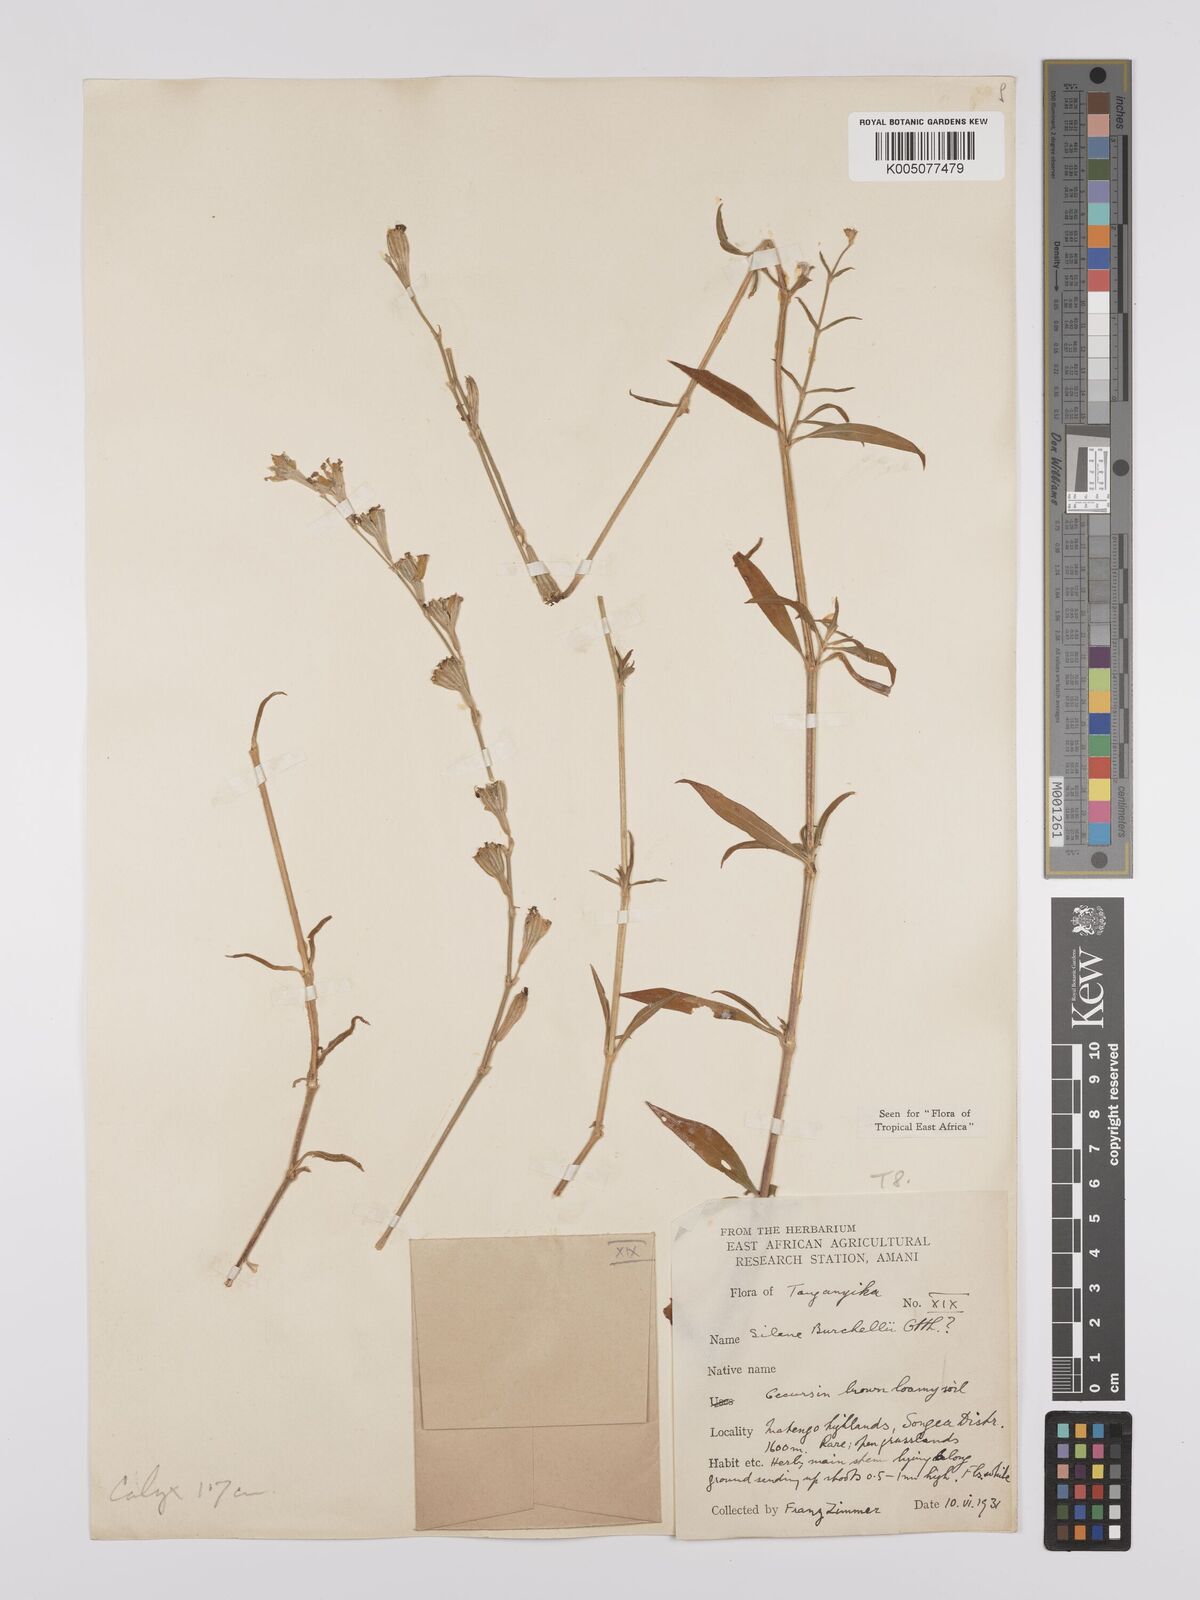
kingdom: Plantae
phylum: Tracheophyta
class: Magnoliopsida
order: Caryophyllales
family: Caryophyllaceae
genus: Silene
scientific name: Silene burchellii
